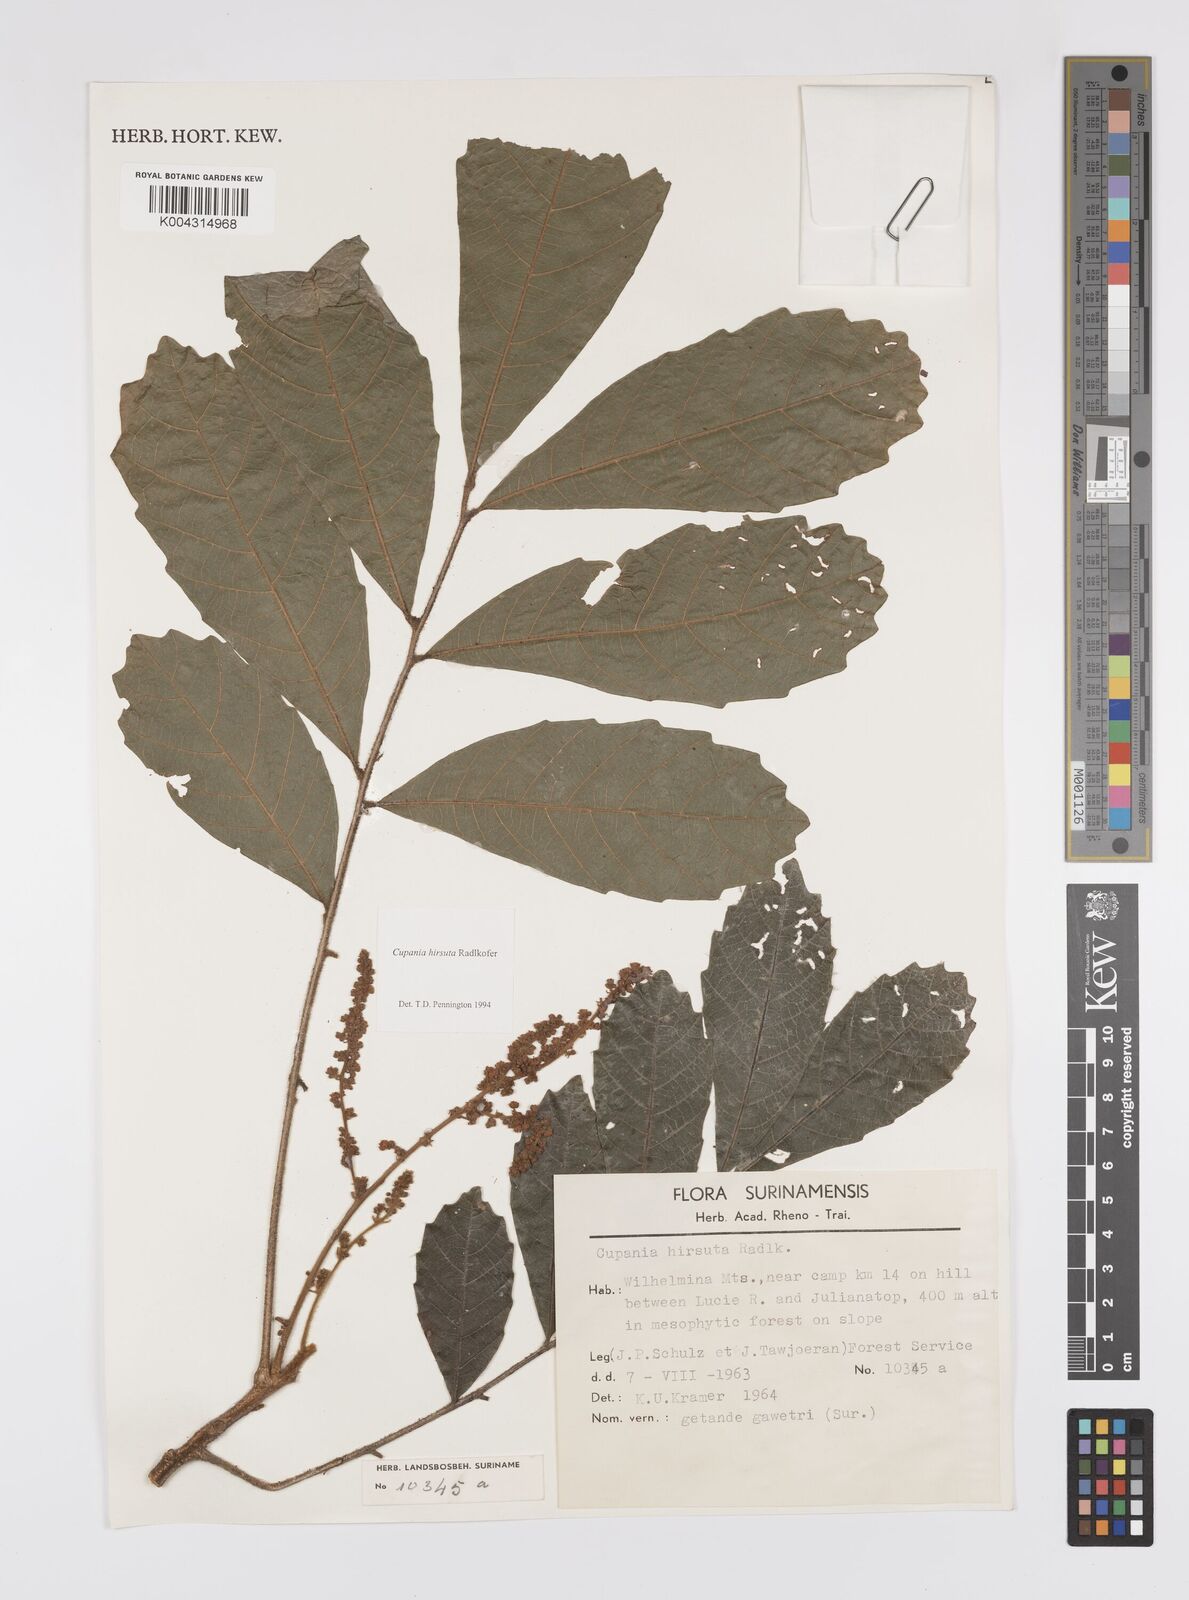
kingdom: Plantae
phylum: Tracheophyta
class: Magnoliopsida
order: Sapindales
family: Sapindaceae
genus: Cupania
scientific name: Cupania hirsuta
